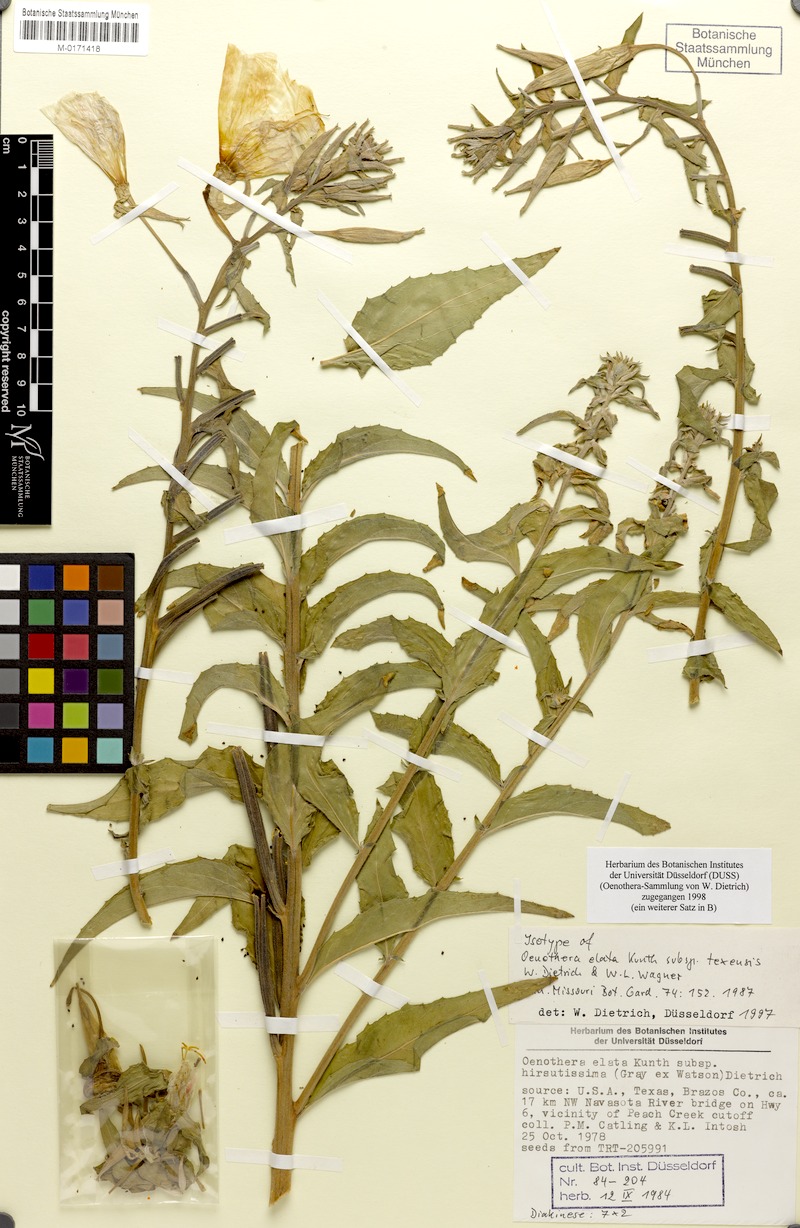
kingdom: Plantae
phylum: Tracheophyta
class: Magnoliopsida
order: Myrtales
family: Onagraceae
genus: Oenothera
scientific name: Oenothera elata
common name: Hooker's evening-primrose
